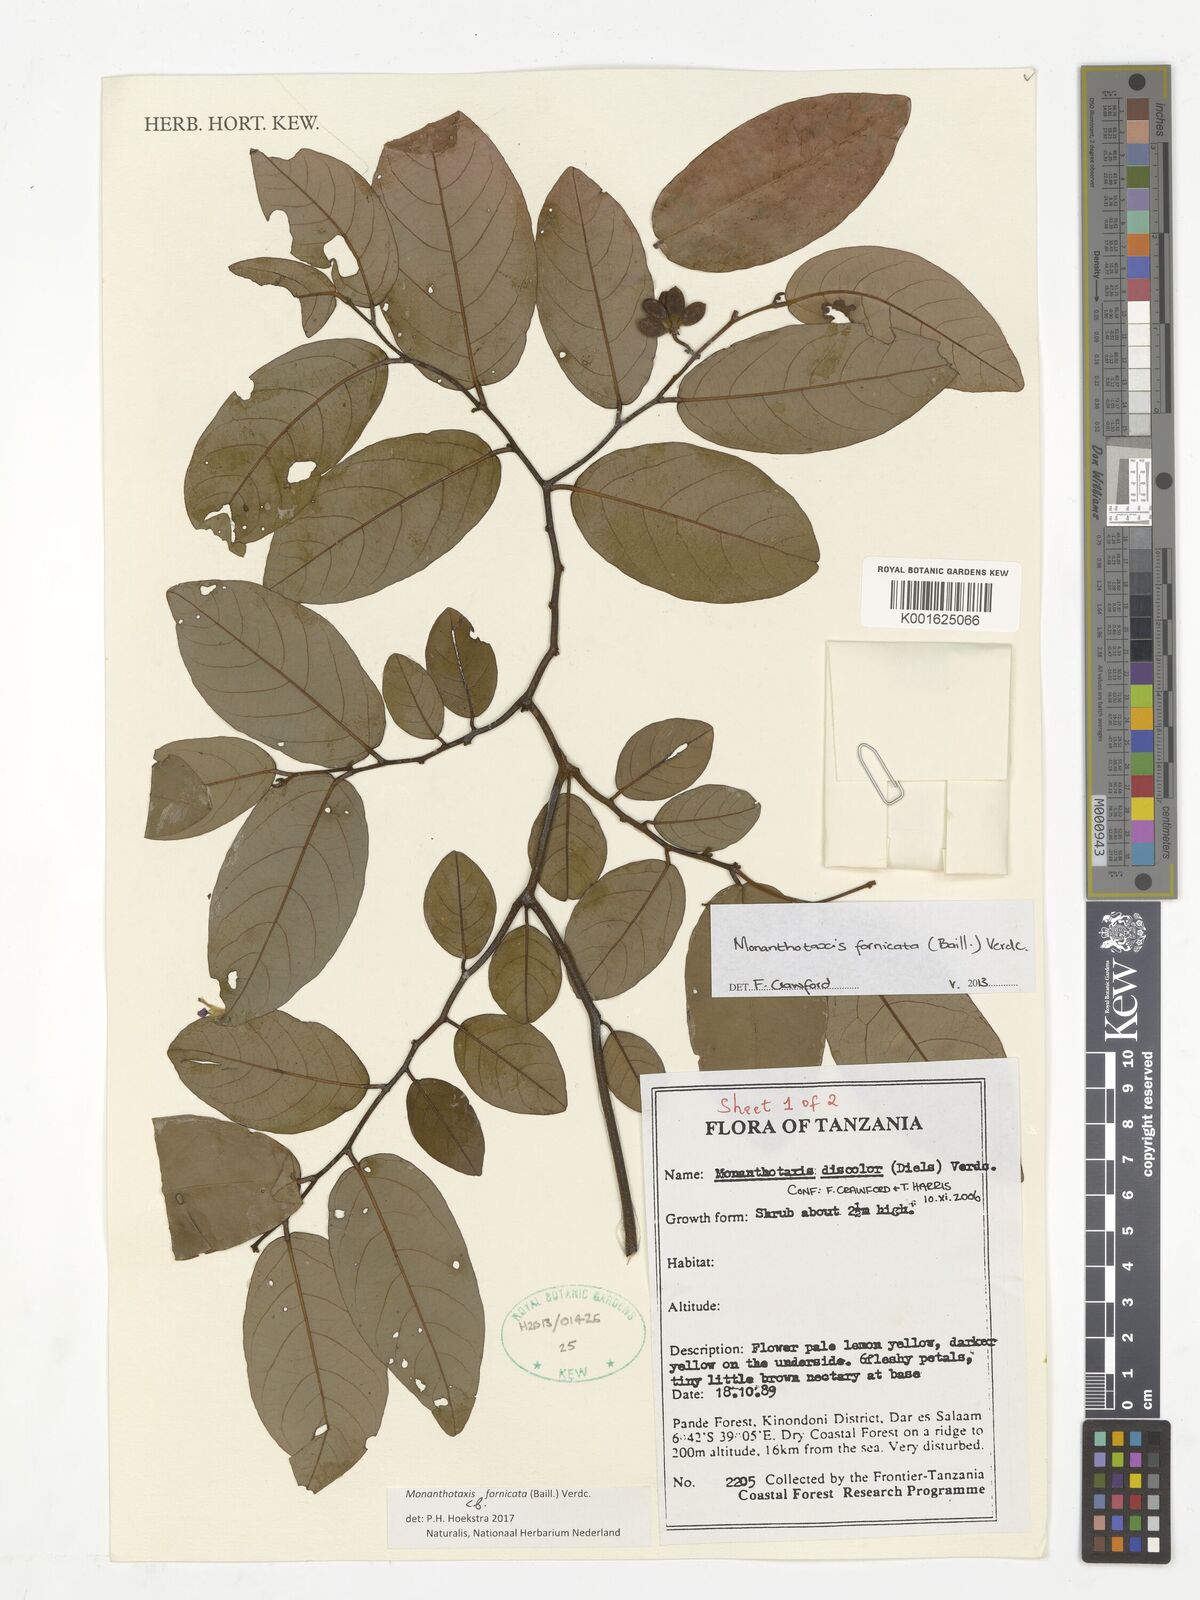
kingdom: Plantae
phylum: Tracheophyta
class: Magnoliopsida
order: Magnoliales
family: Annonaceae
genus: Monanthotaxis
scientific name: Monanthotaxis fornicata
